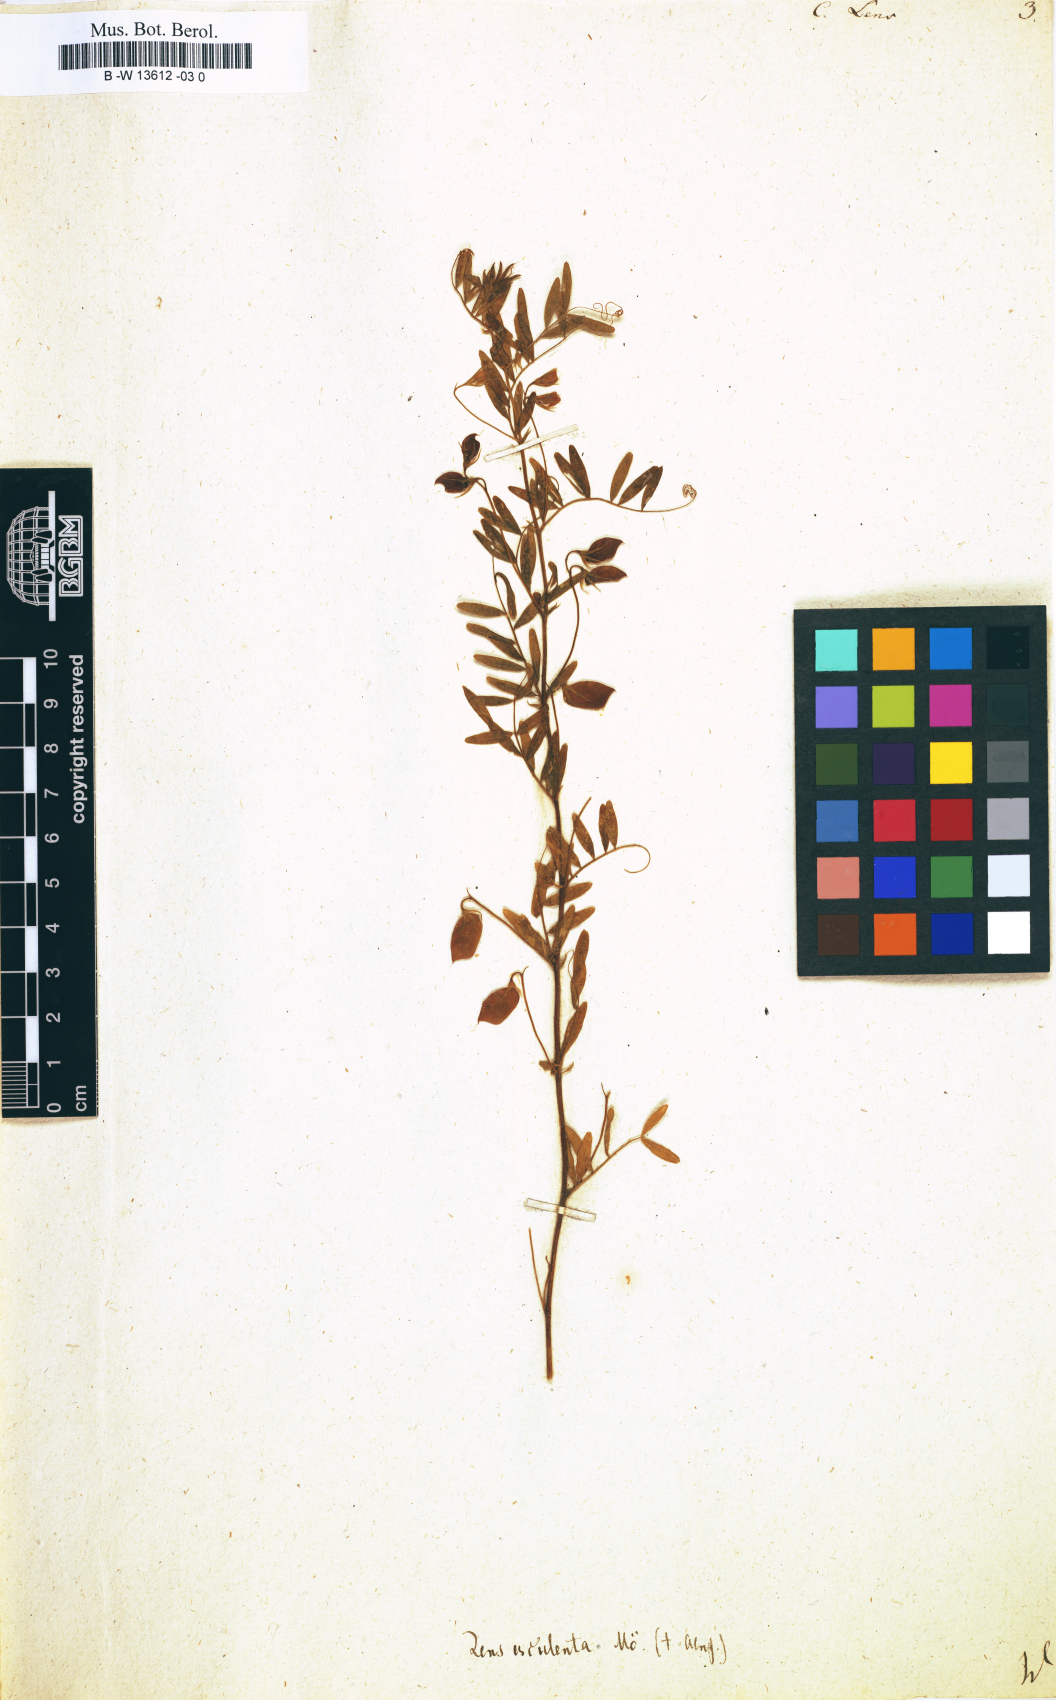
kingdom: Plantae
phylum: Tracheophyta
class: Magnoliopsida
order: Fabales
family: Fabaceae
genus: Vicia
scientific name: Vicia lens
